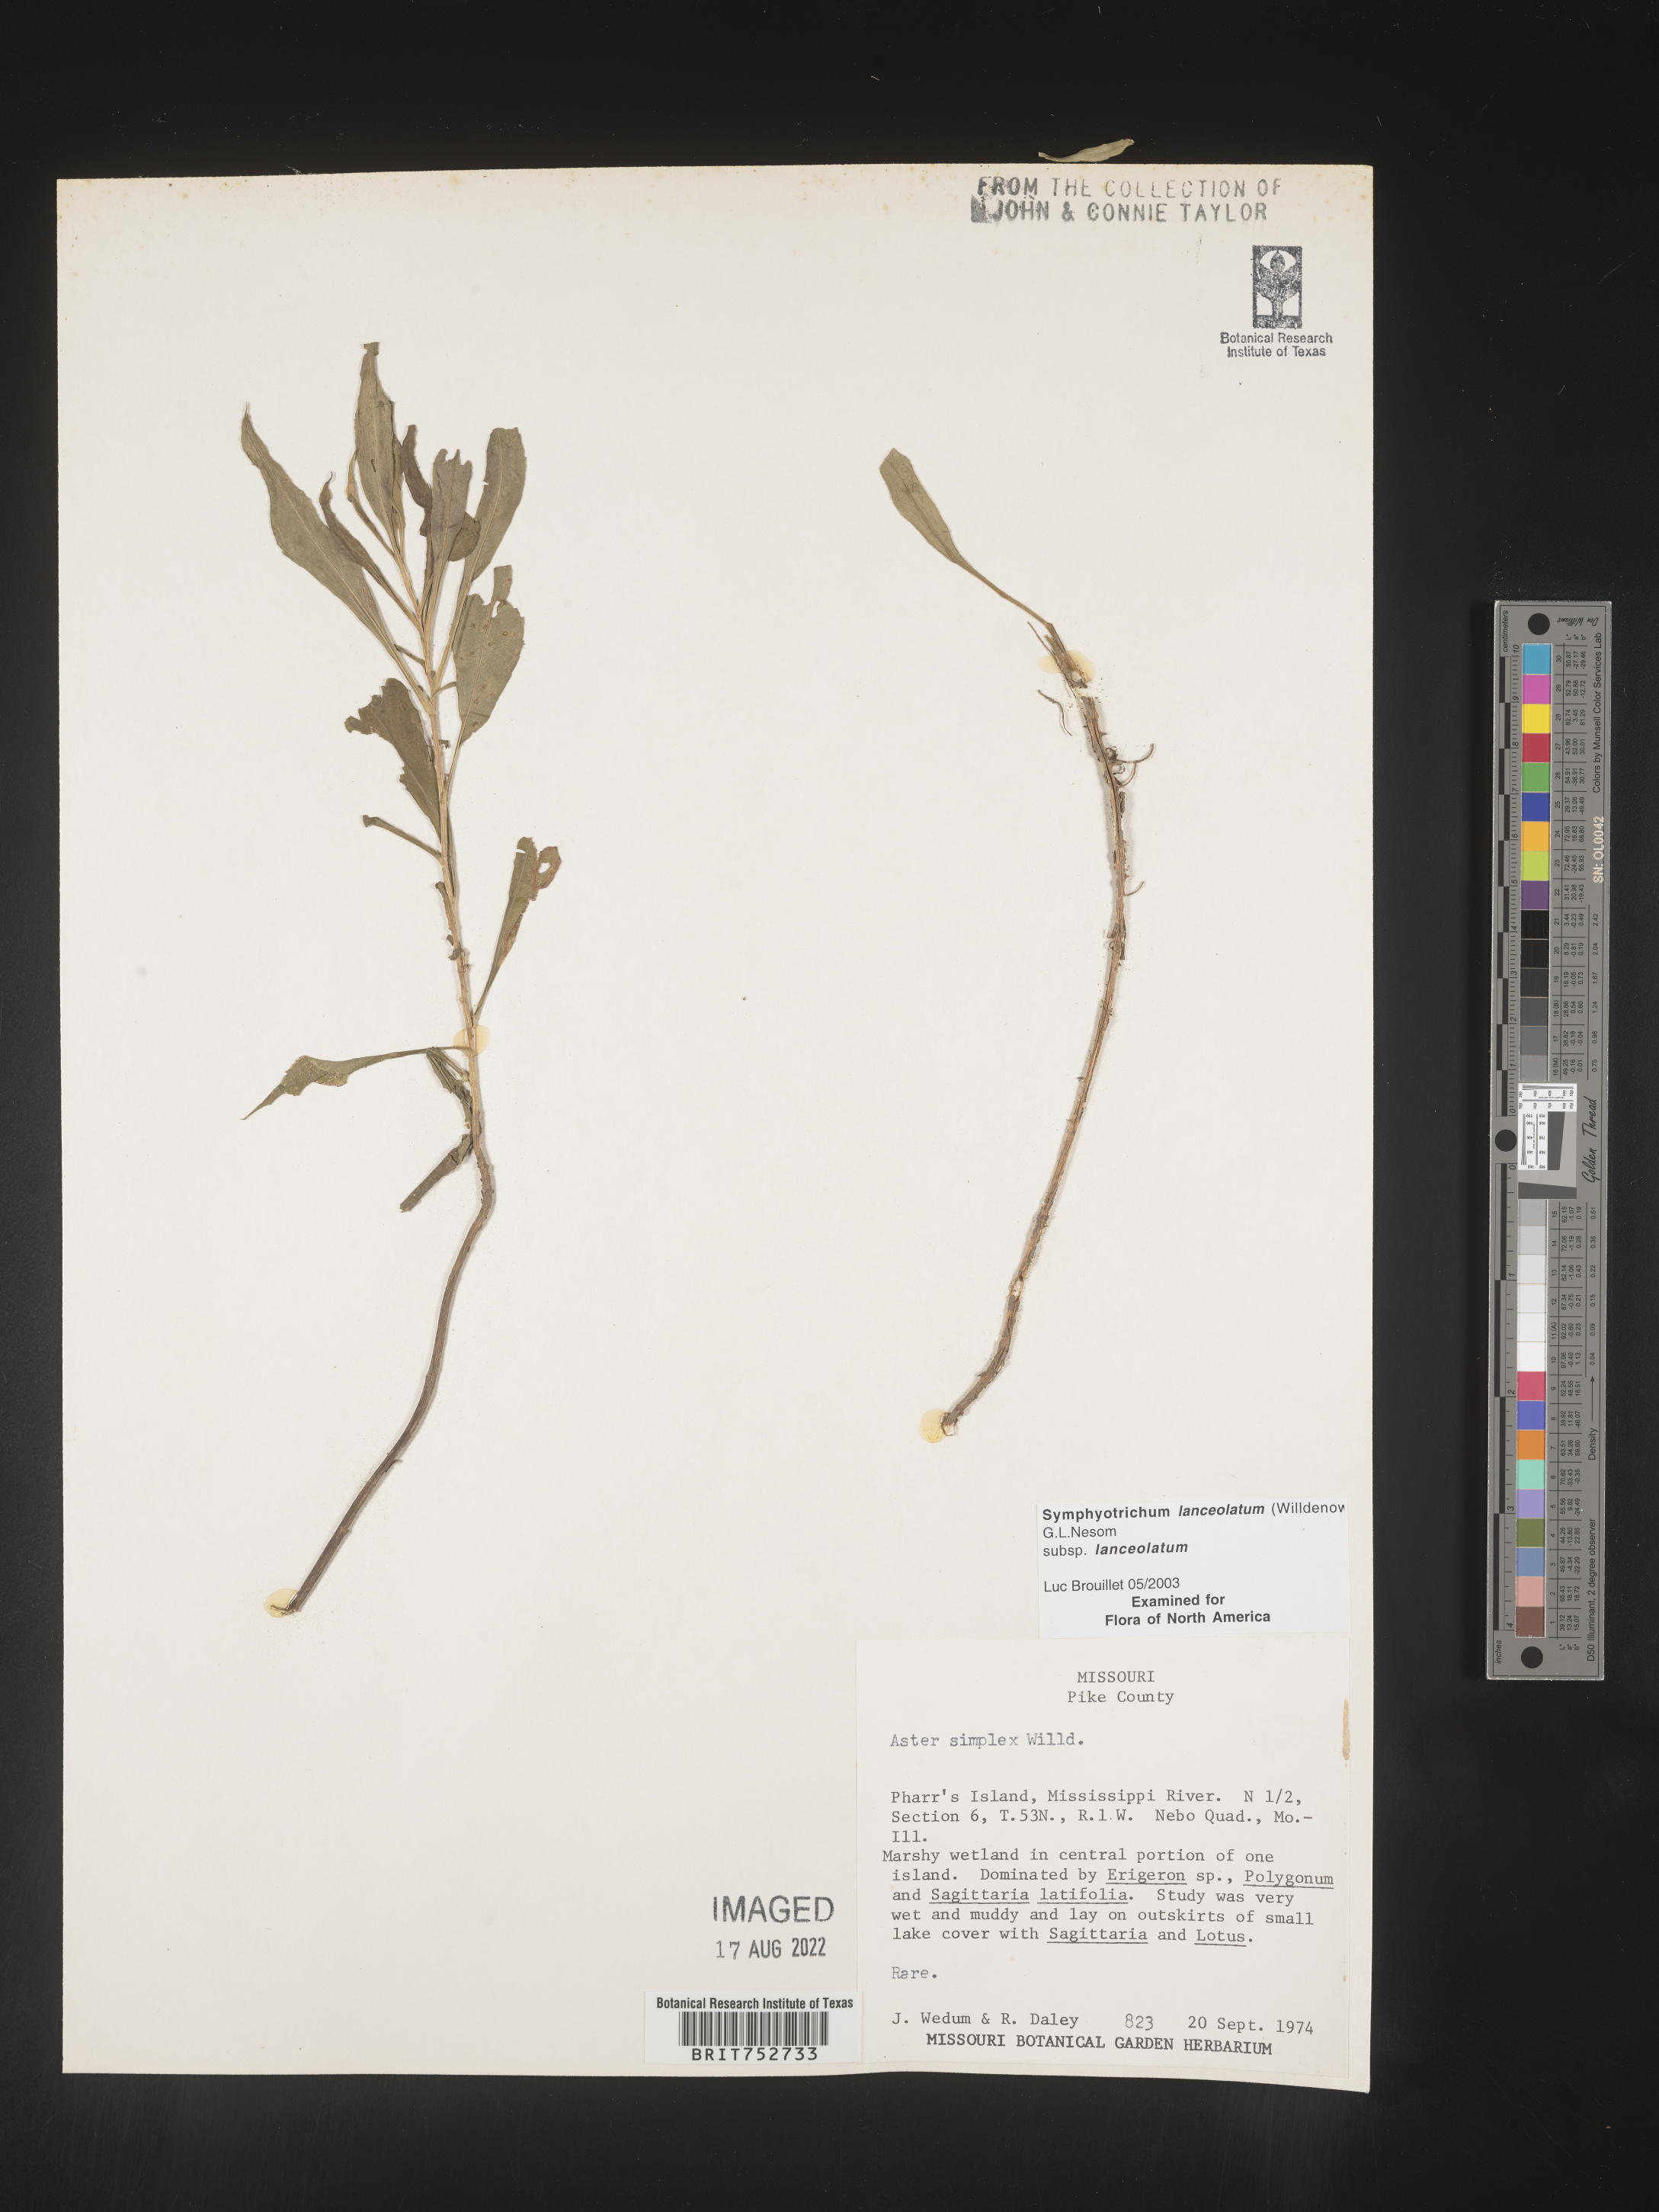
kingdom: Plantae
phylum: Tracheophyta
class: Magnoliopsida
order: Asterales
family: Asteraceae
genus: Symphyotrichum
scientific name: Symphyotrichum lanceolatum
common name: Panicled aster
